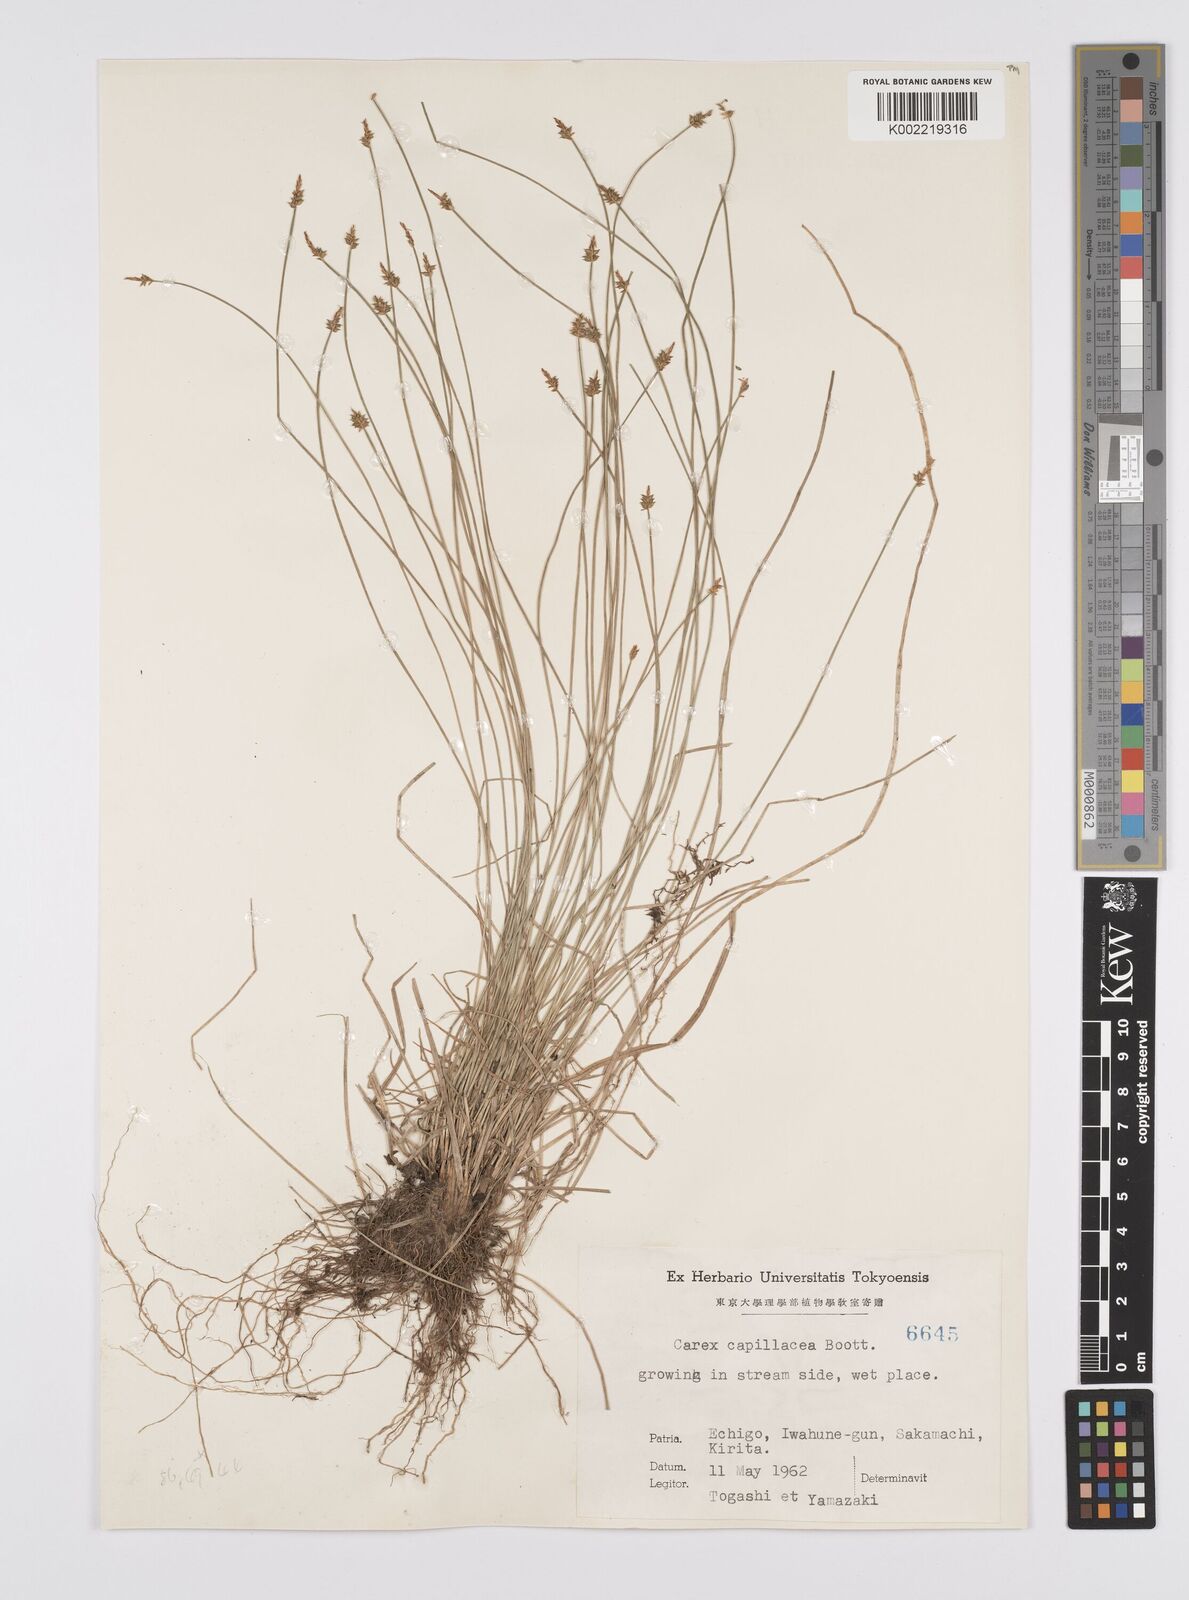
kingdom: Plantae
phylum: Tracheophyta
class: Liliopsida
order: Poales
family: Cyperaceae
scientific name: Cyperaceae
